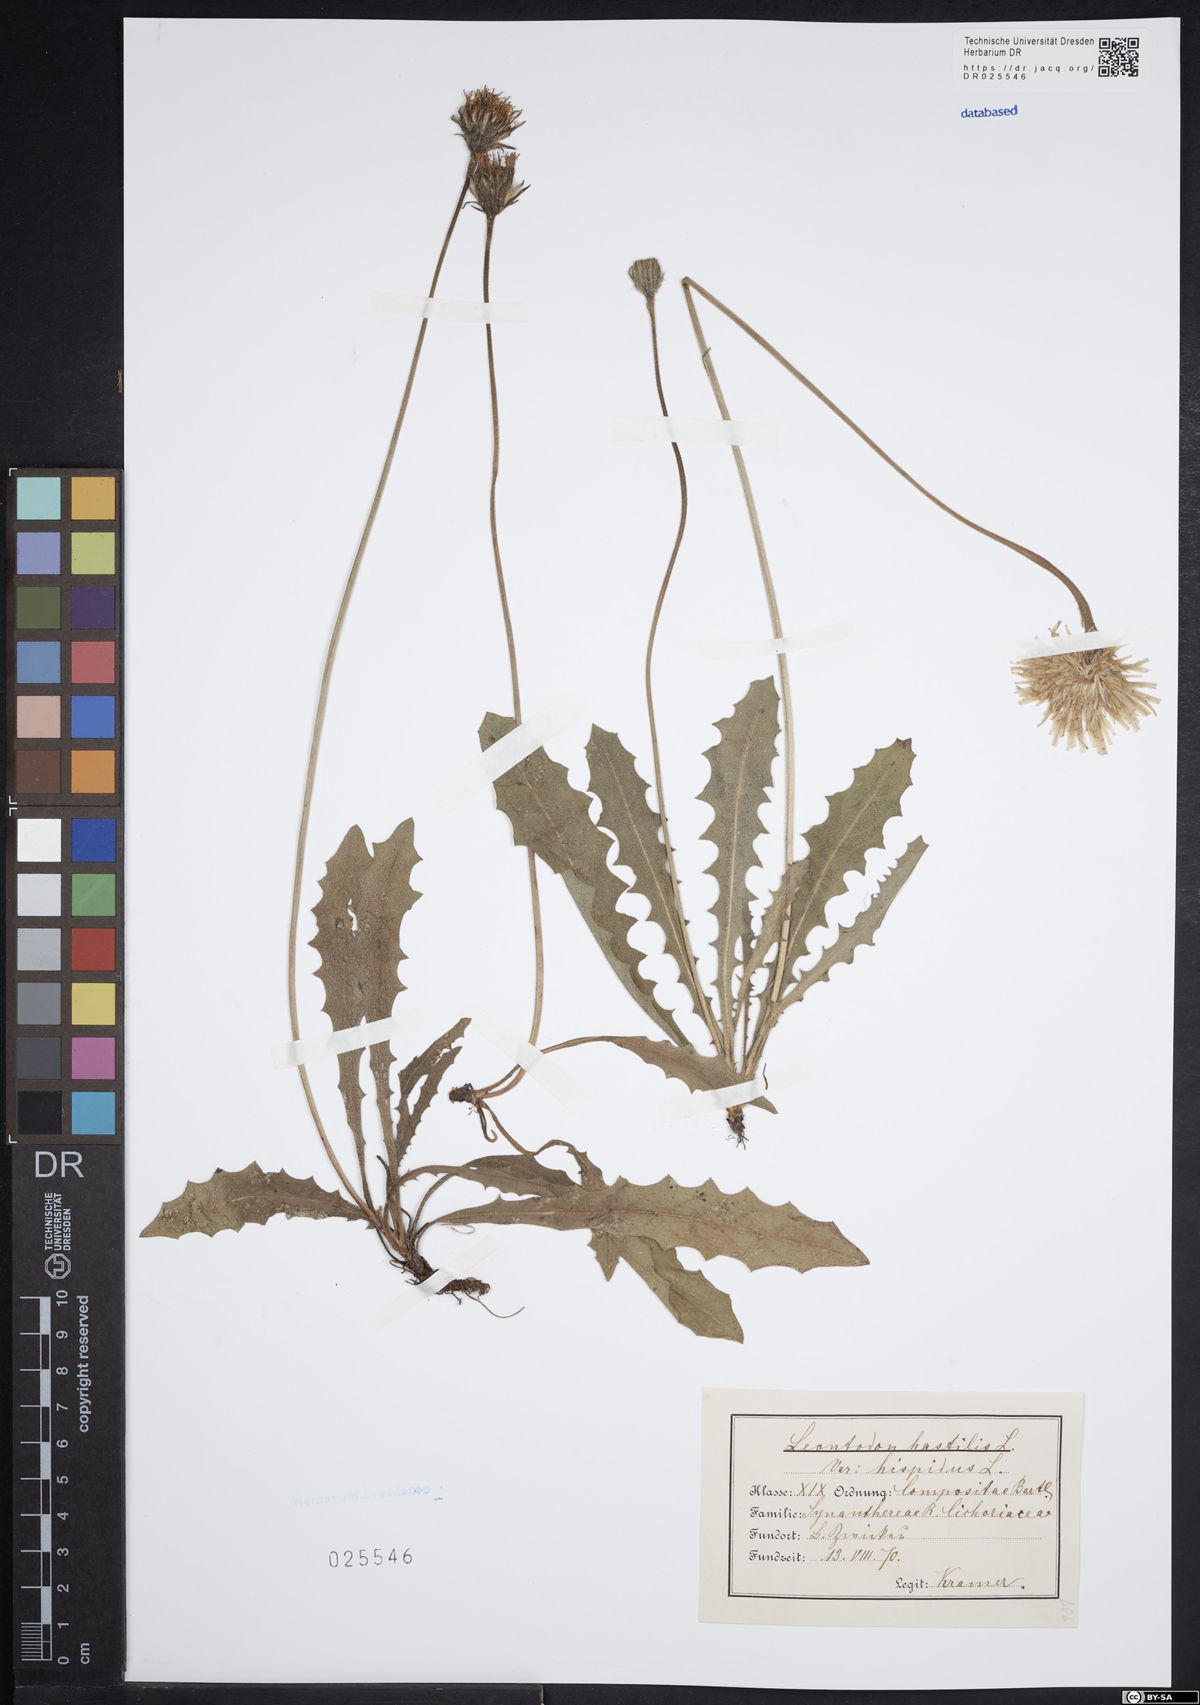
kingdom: Plantae
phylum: Tracheophyta
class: Magnoliopsida
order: Asterales
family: Asteraceae
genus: Leontodon
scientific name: Leontodon hispidus
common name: Rough hawkbit
